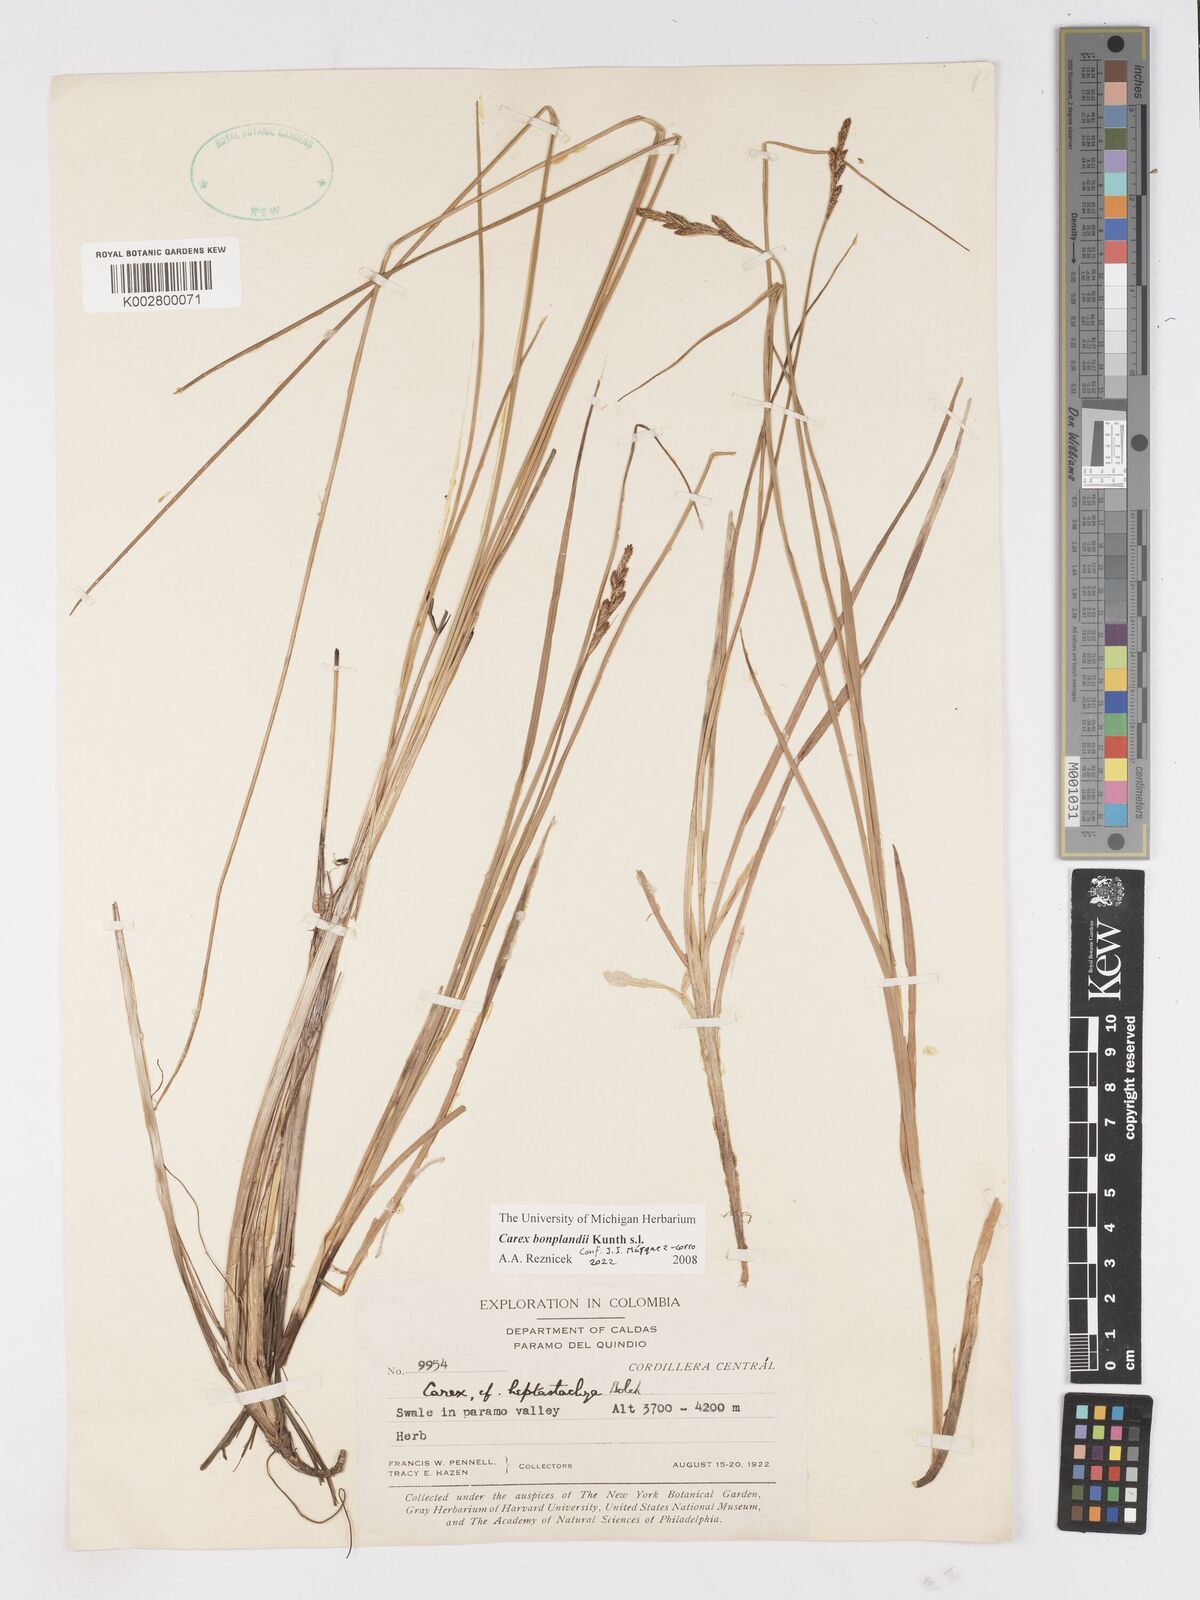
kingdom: Plantae
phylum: Tracheophyta
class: Liliopsida
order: Poales
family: Cyperaceae
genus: Carex
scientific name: Carex bonplandii
